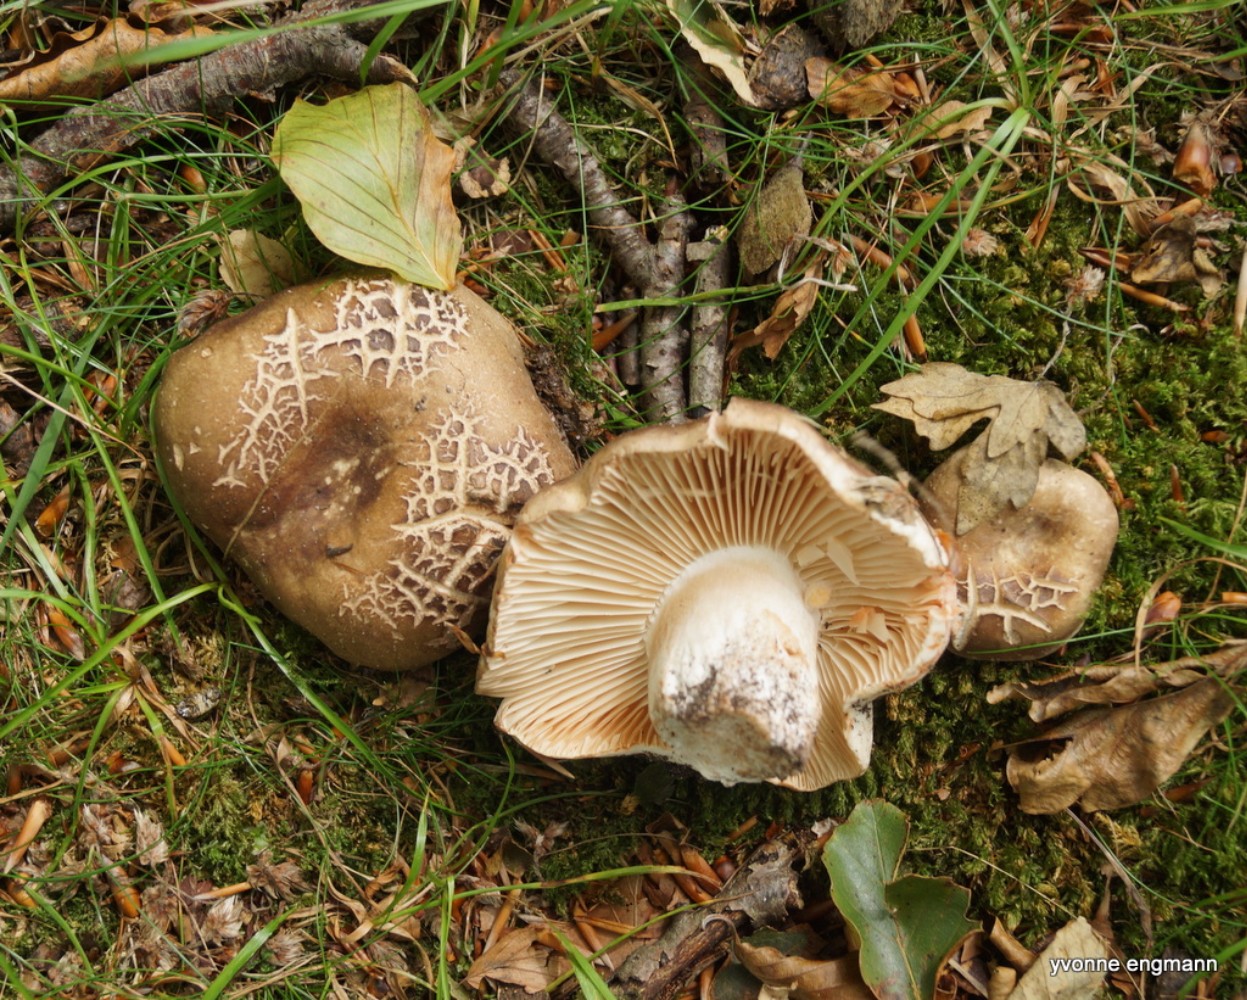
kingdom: Fungi
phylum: Basidiomycota
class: Agaricomycetes
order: Russulales
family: Russulaceae
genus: Russula
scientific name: Russula adusta
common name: sværtende skørhat
